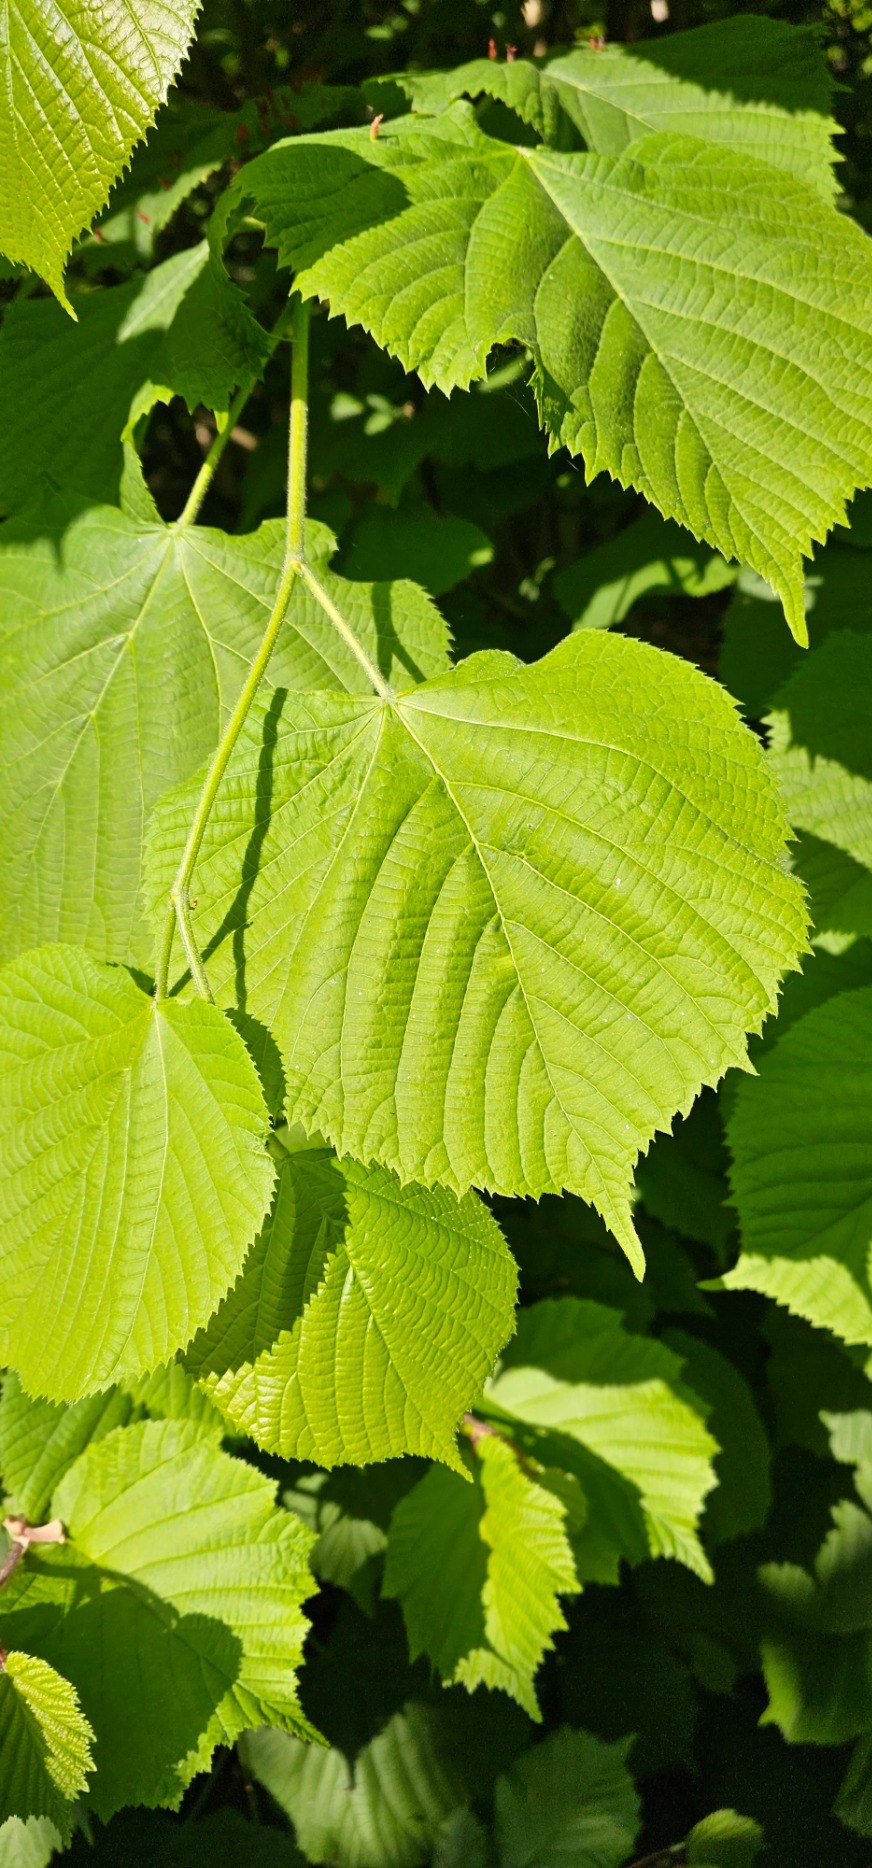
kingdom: Plantae
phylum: Tracheophyta
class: Magnoliopsida
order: Malvales
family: Malvaceae
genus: Tilia
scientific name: Tilia platyphyllos
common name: Storbladet lind
